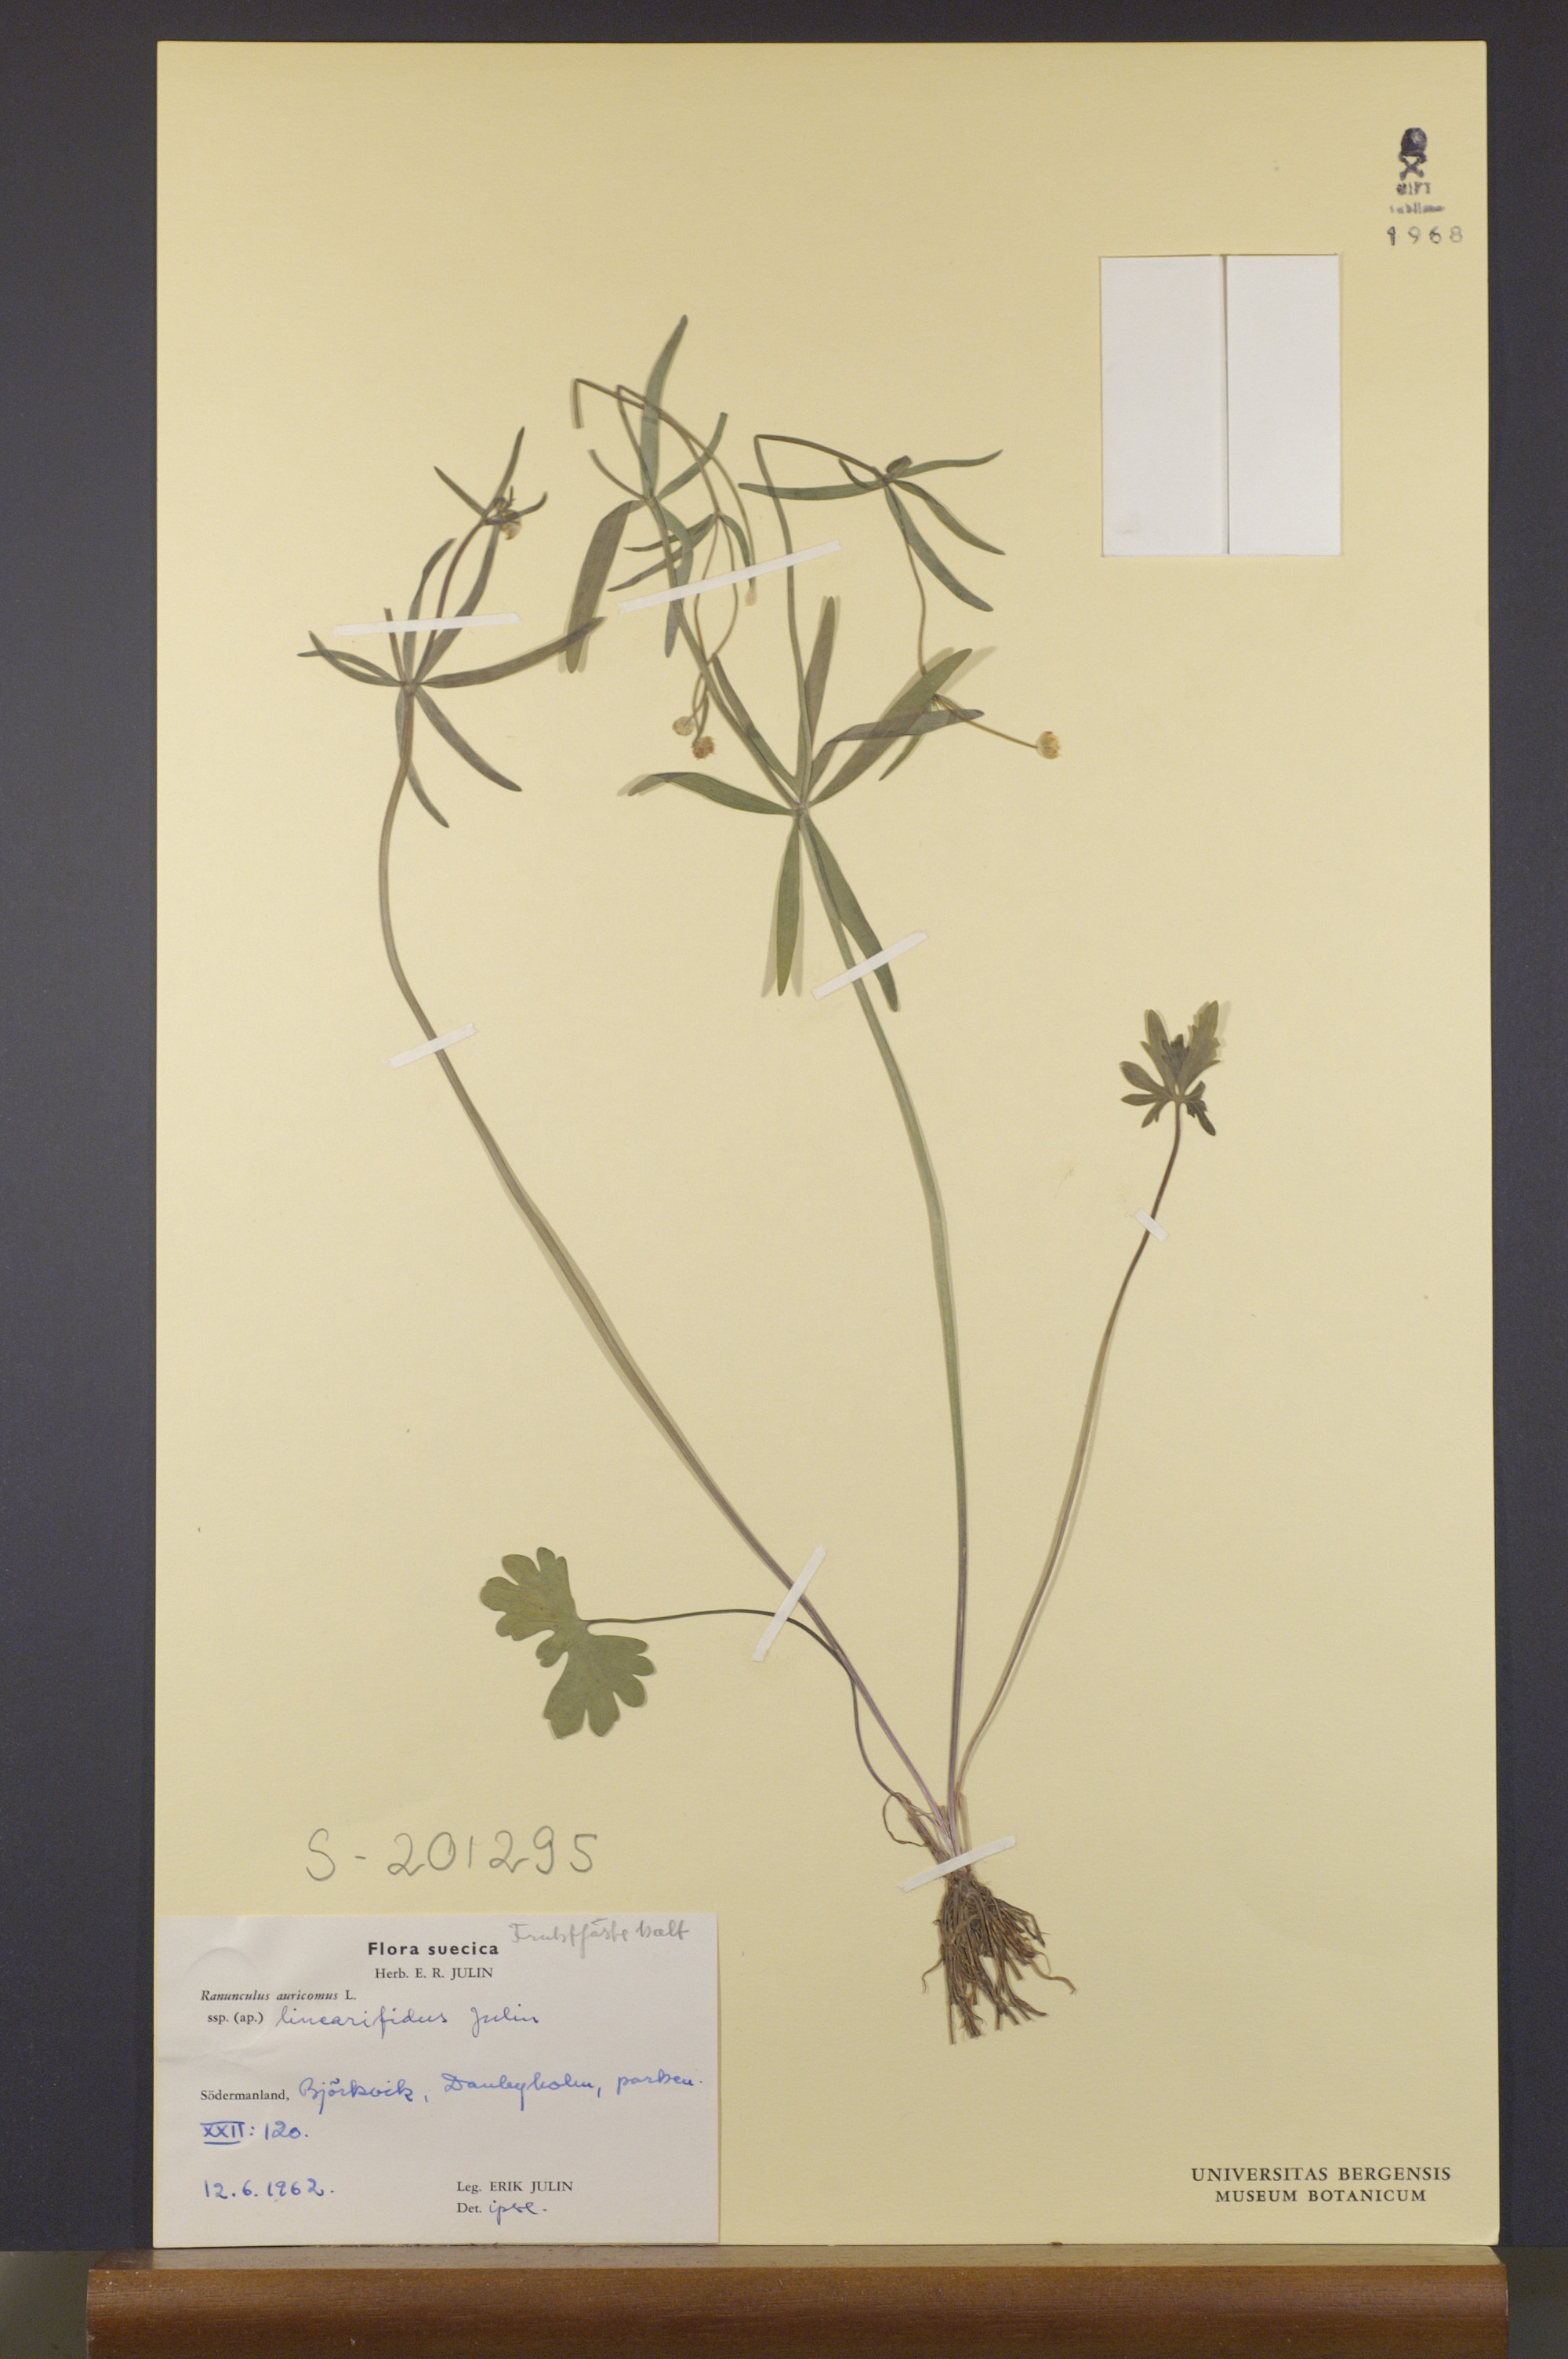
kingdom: Plantae
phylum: Tracheophyta
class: Magnoliopsida
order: Ranunculales
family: Ranunculaceae
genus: Ranunculus
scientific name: Ranunculus linearifidus
